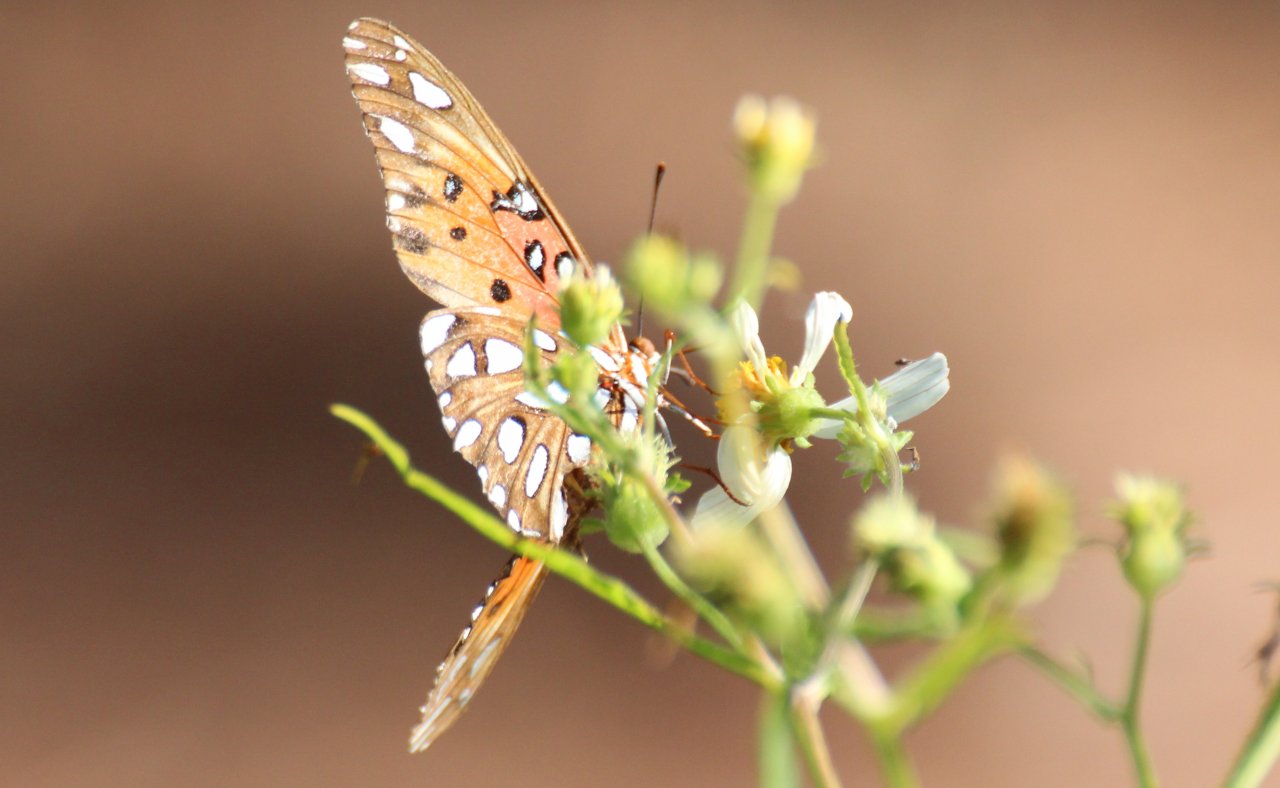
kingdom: Animalia
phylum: Arthropoda
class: Insecta
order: Lepidoptera
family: Nymphalidae
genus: Dione
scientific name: Dione vanillae
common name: Gulf Fritillary
